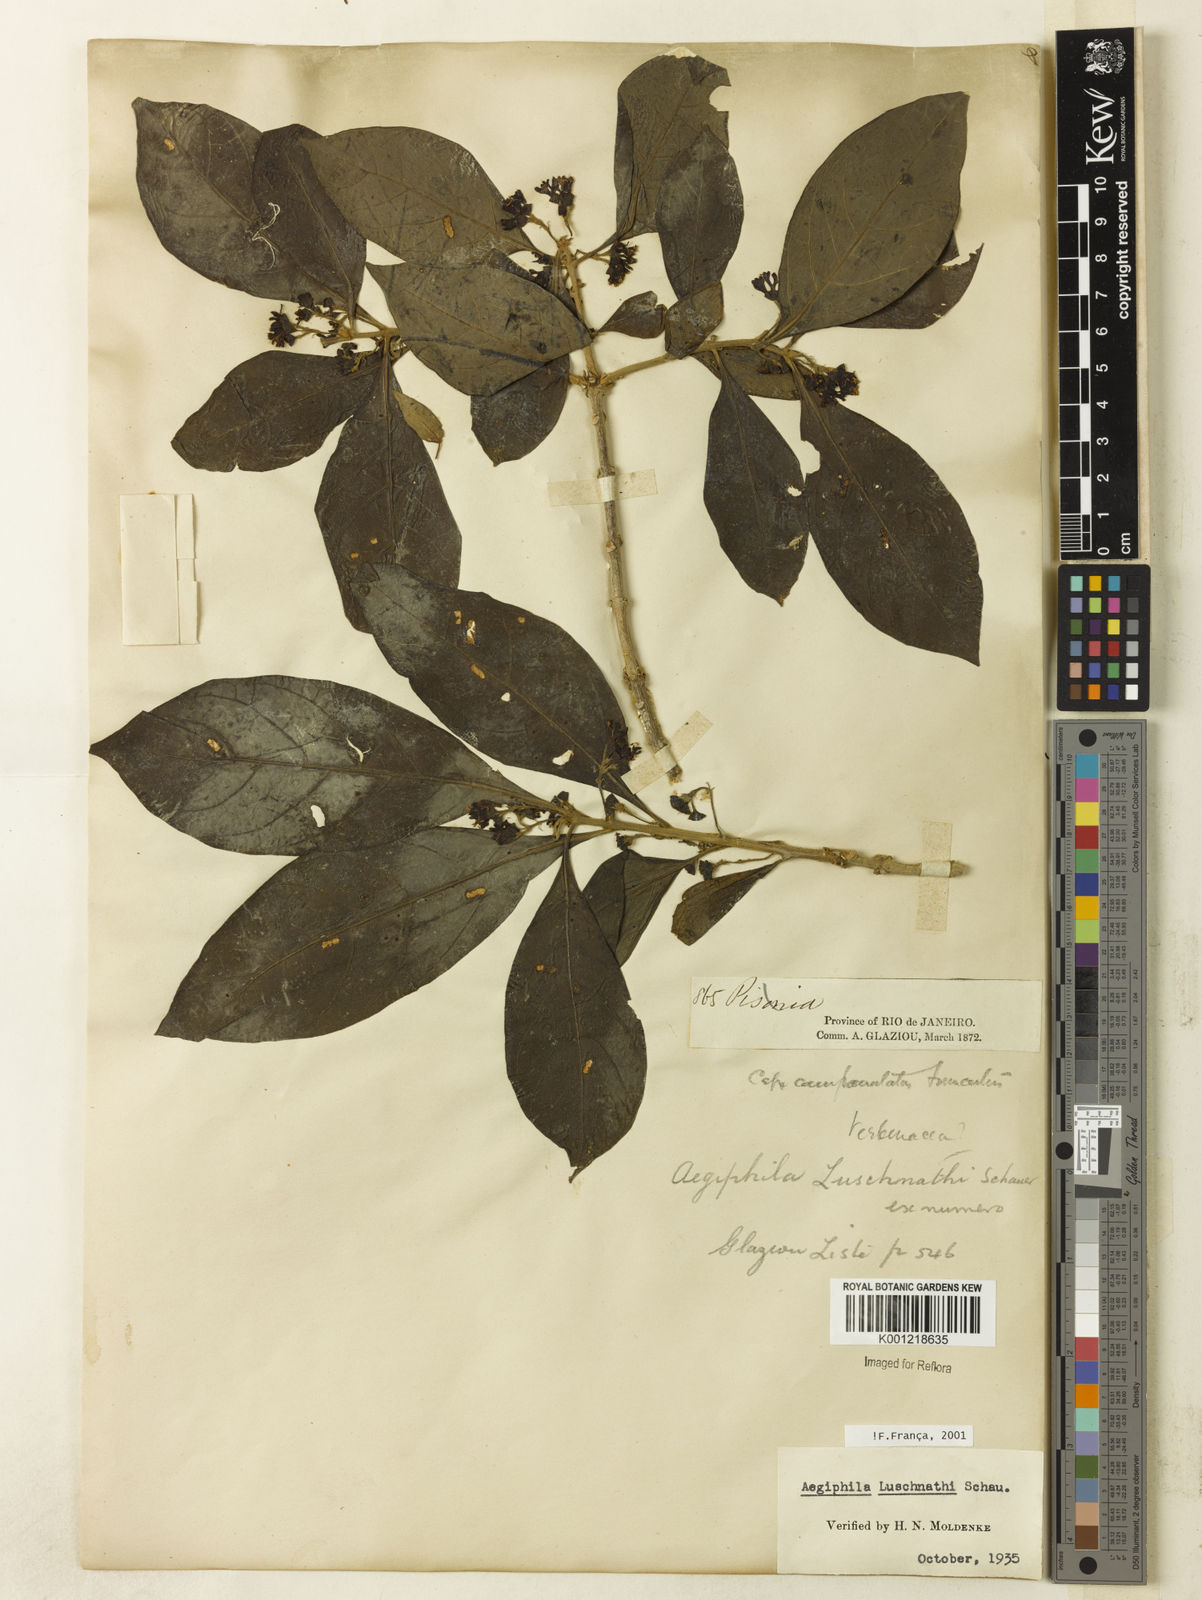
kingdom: Plantae
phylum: Tracheophyta
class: Magnoliopsida
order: Lamiales
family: Lamiaceae
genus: Aegiphila
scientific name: Aegiphila luschnathii
